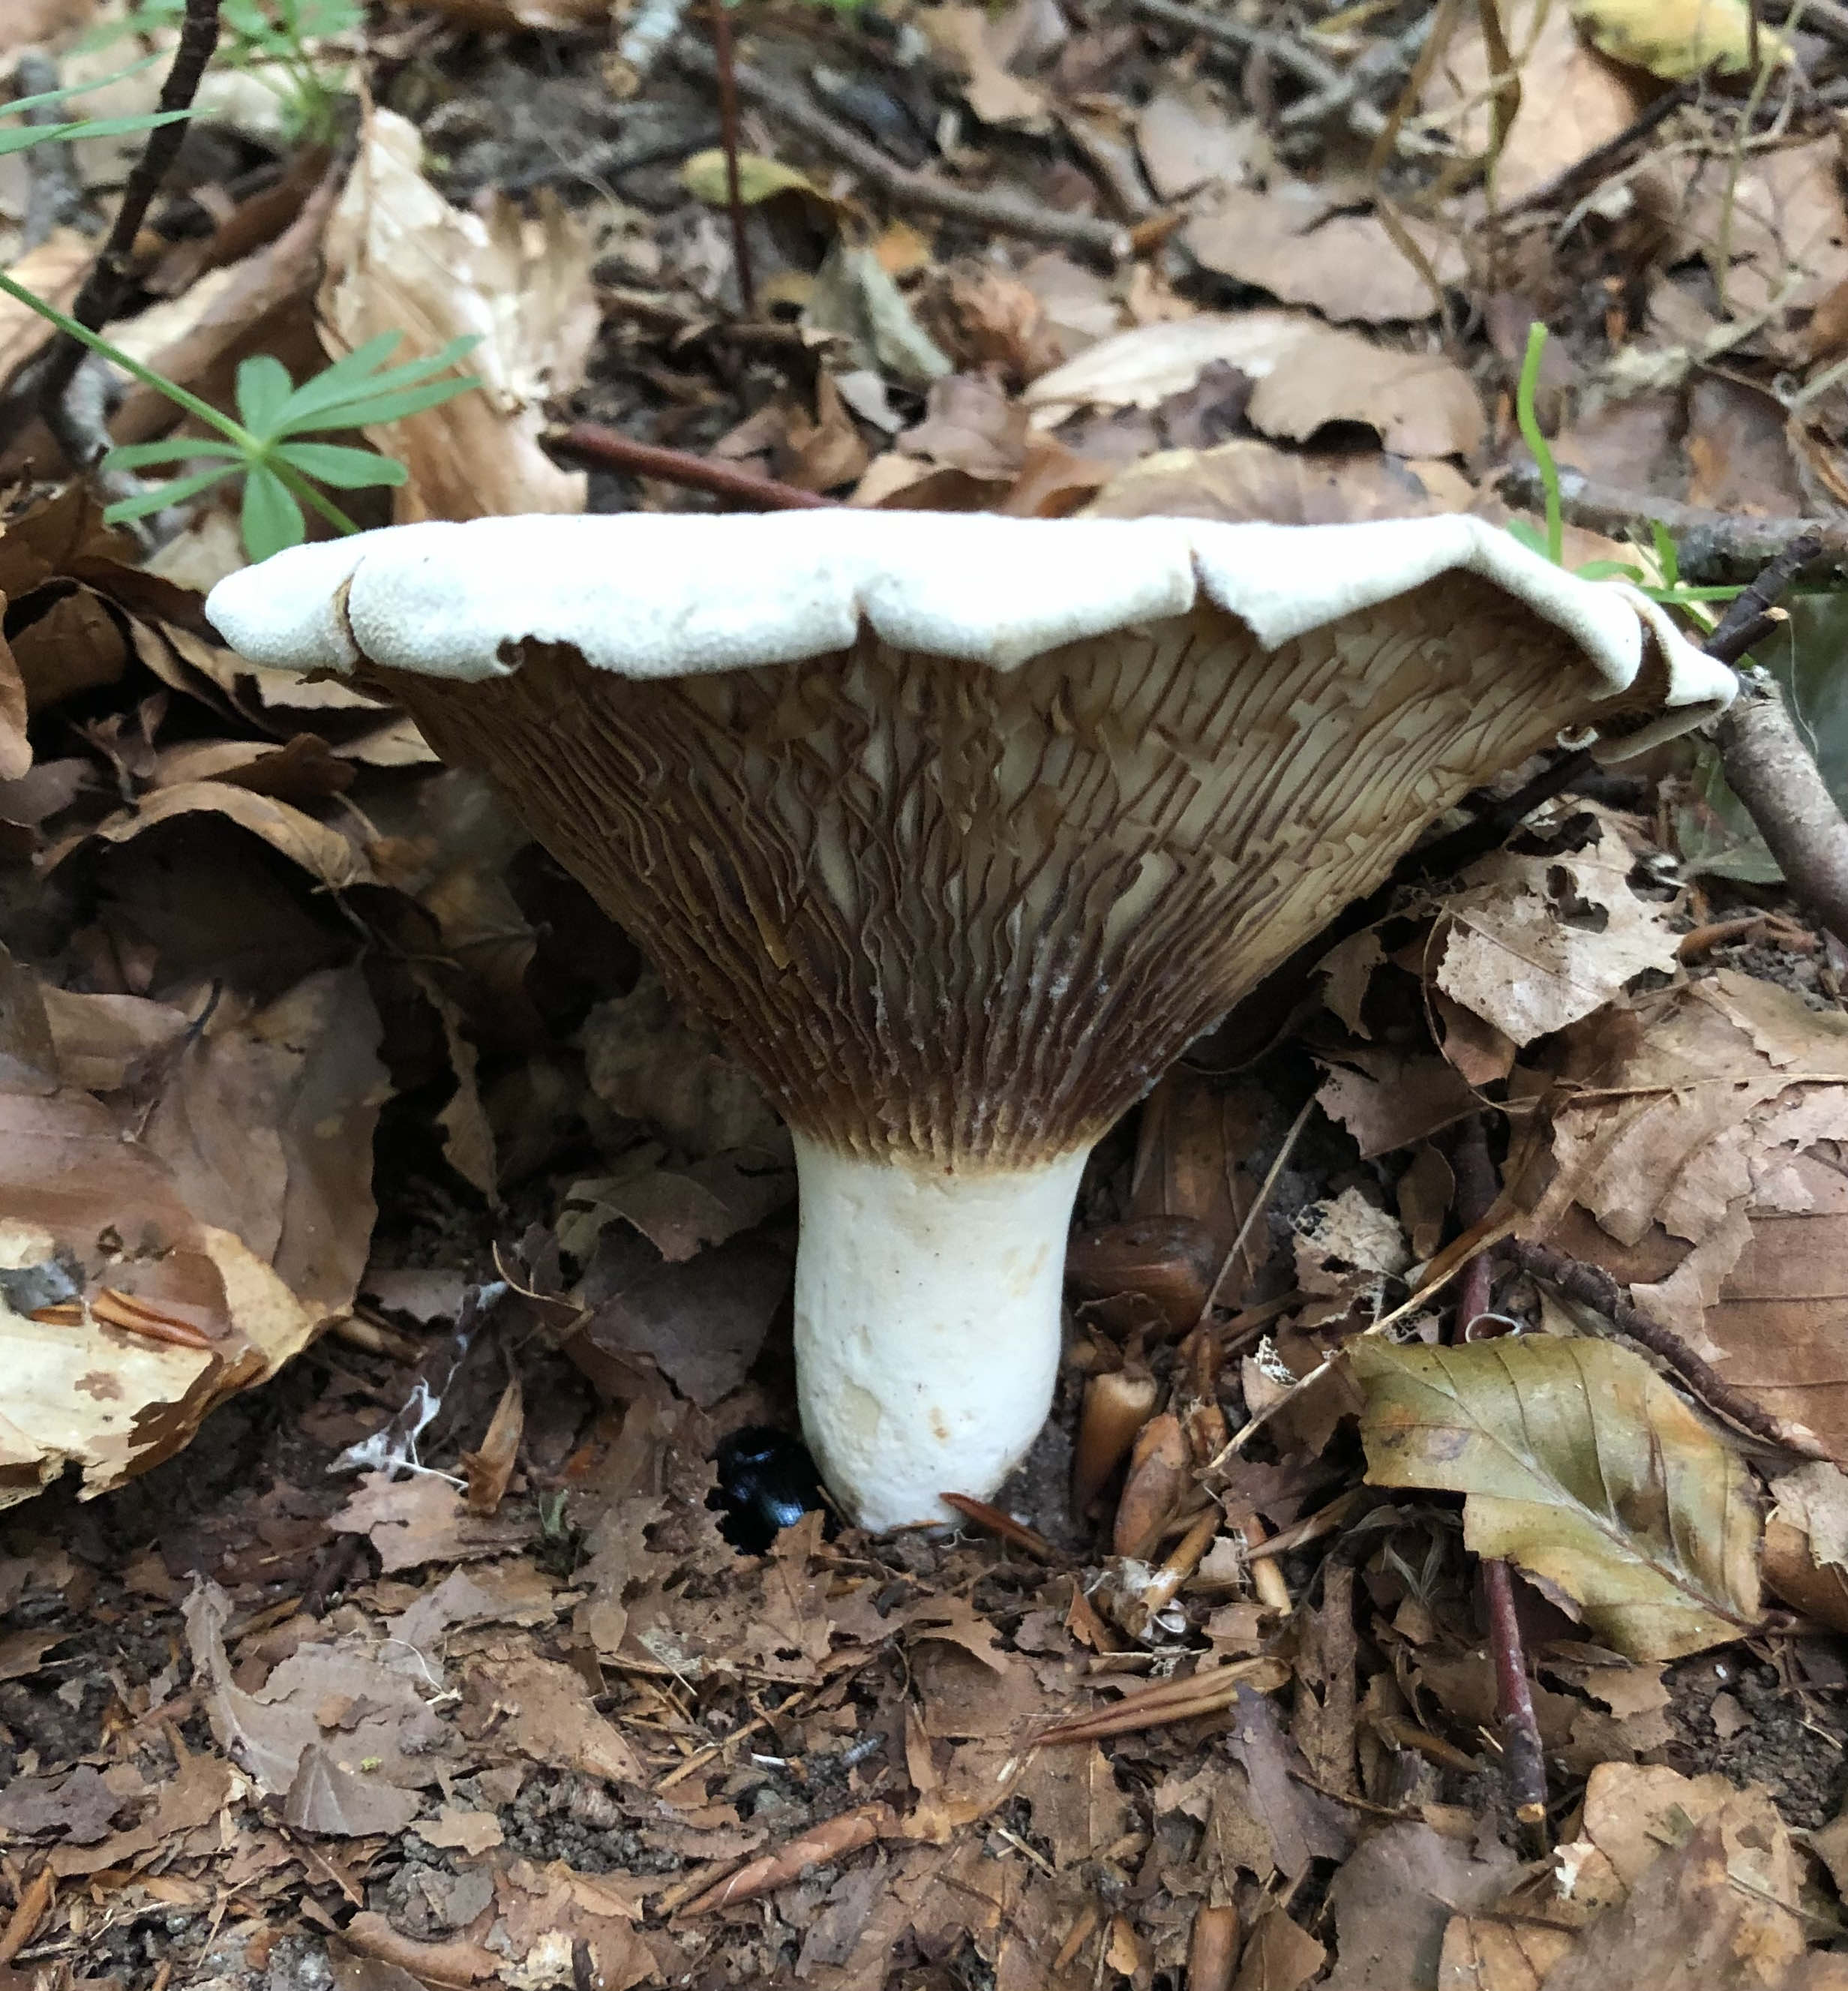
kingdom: Fungi
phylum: Basidiomycota
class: Agaricomycetes
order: Russulales
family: Russulaceae
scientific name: Russulaceae
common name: skørhatfamilien
